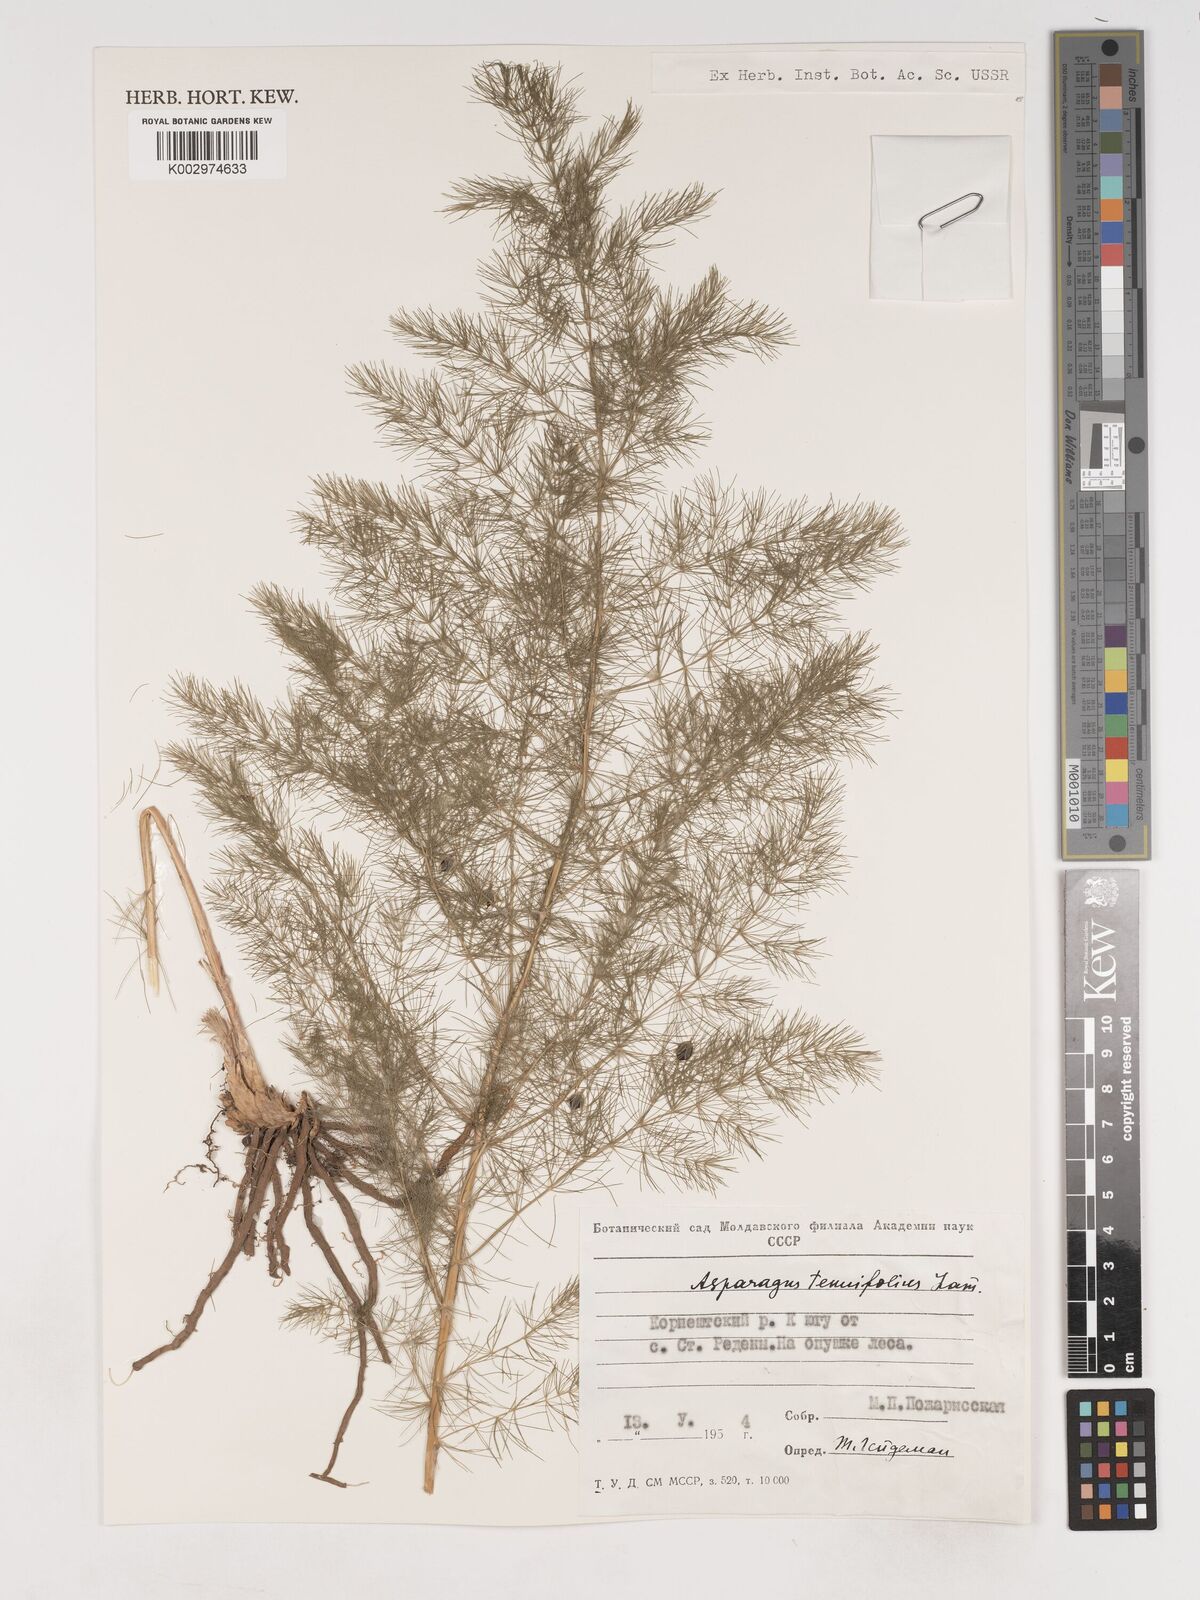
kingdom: Plantae
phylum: Tracheophyta
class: Liliopsida
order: Asparagales
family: Asparagaceae
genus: Asparagus
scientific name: Asparagus tenuifolius
